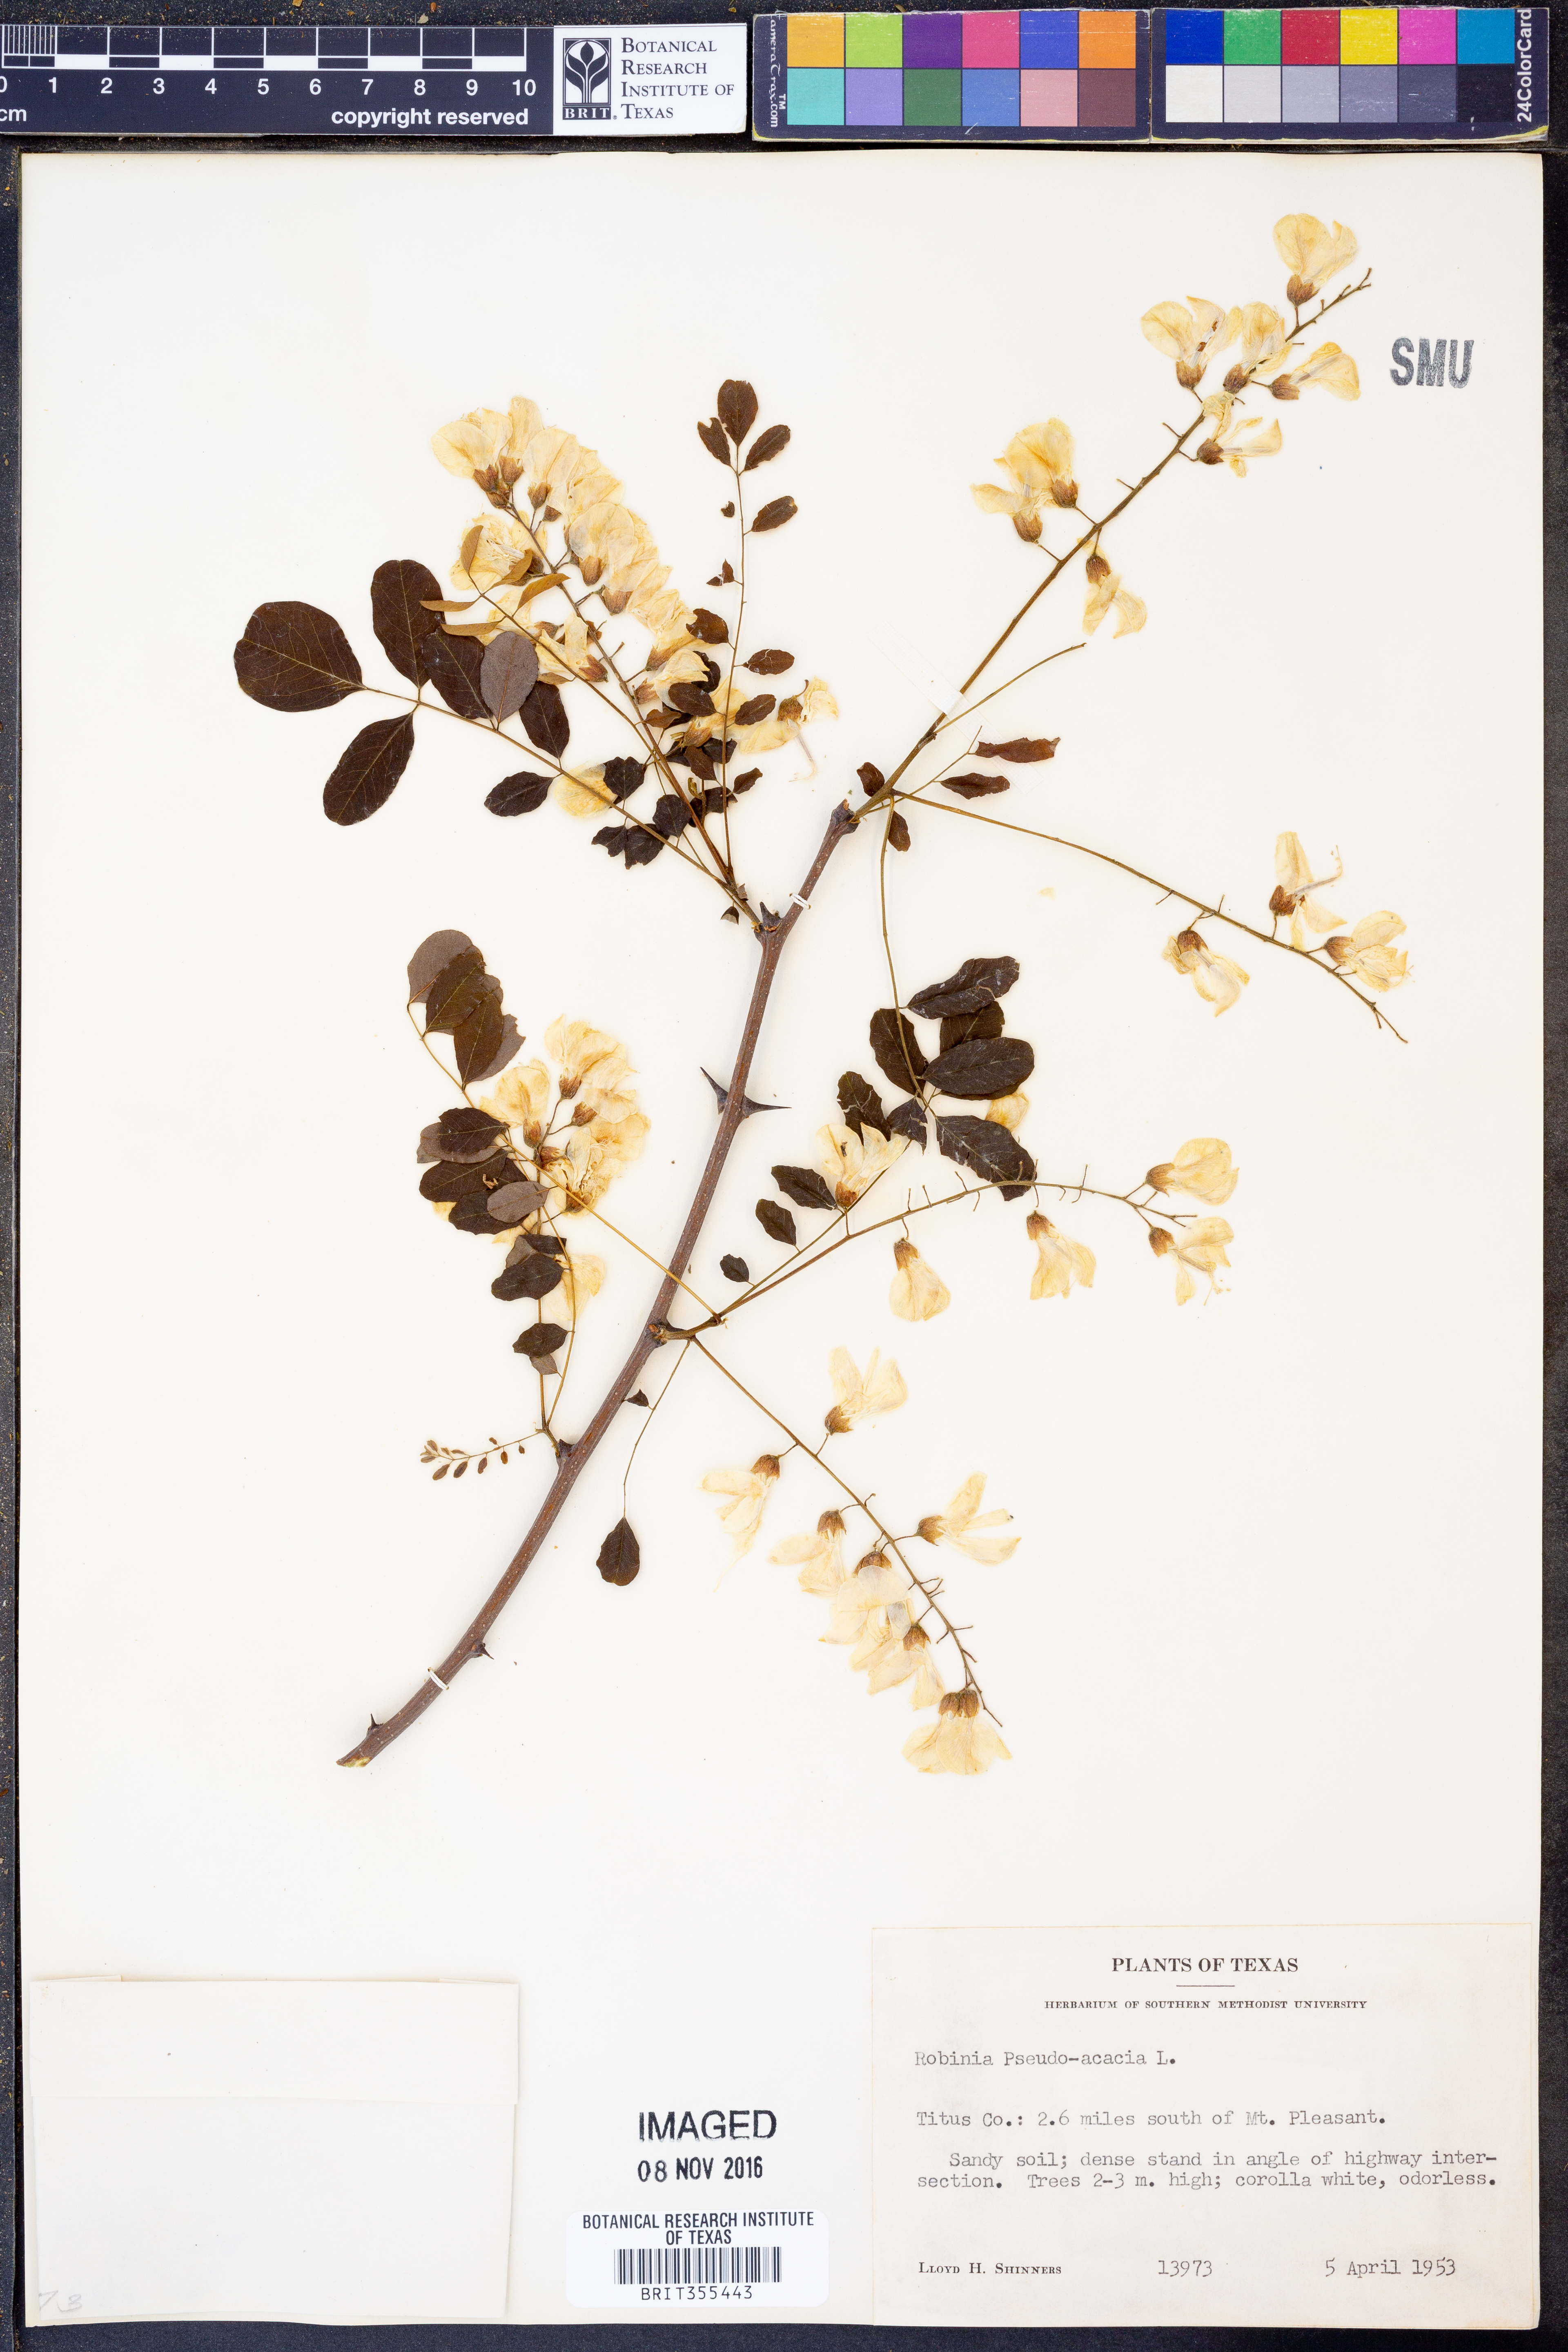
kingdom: Plantae
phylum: Tracheophyta
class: Magnoliopsida
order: Fabales
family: Fabaceae
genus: Robinia
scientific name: Robinia pseudoacacia
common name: Black locust
